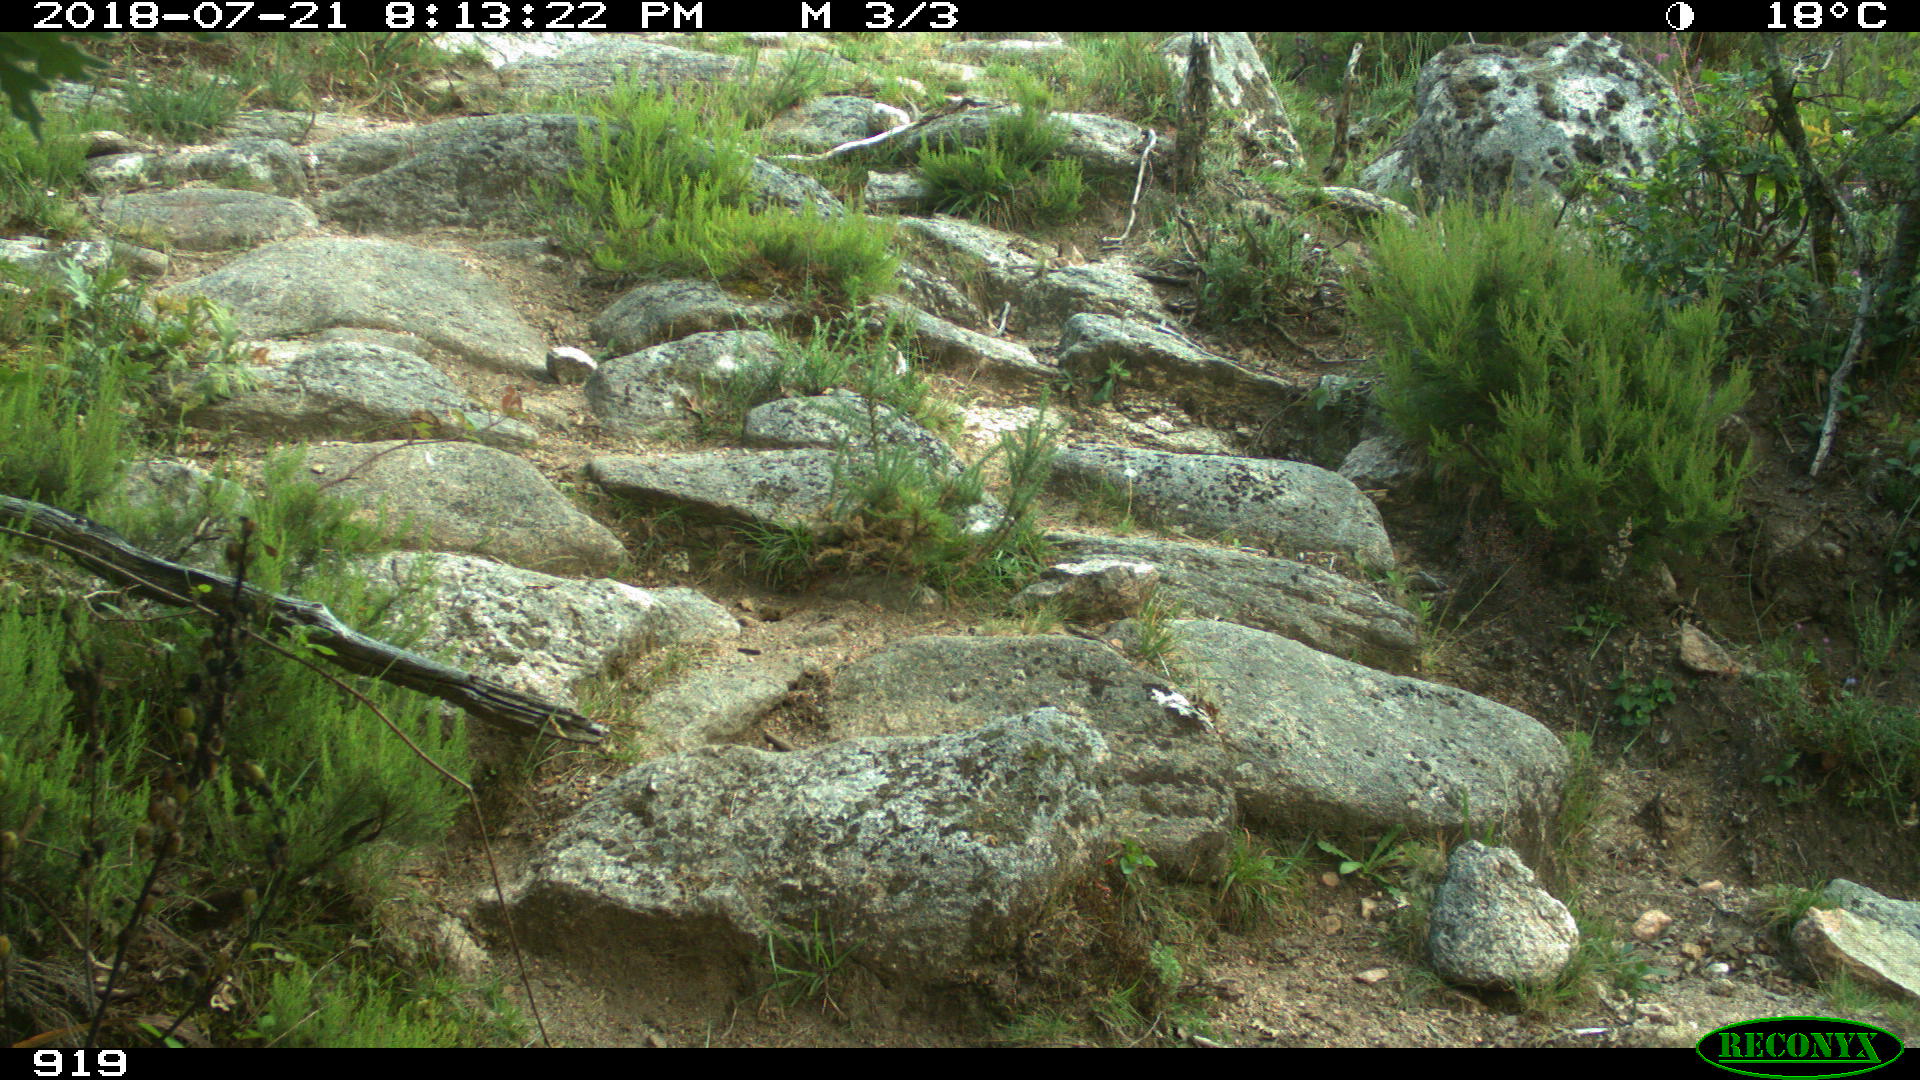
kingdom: Animalia
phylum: Chordata
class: Mammalia
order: Artiodactyla
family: Bovidae
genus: Bos
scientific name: Bos taurus
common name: Domesticated cattle
